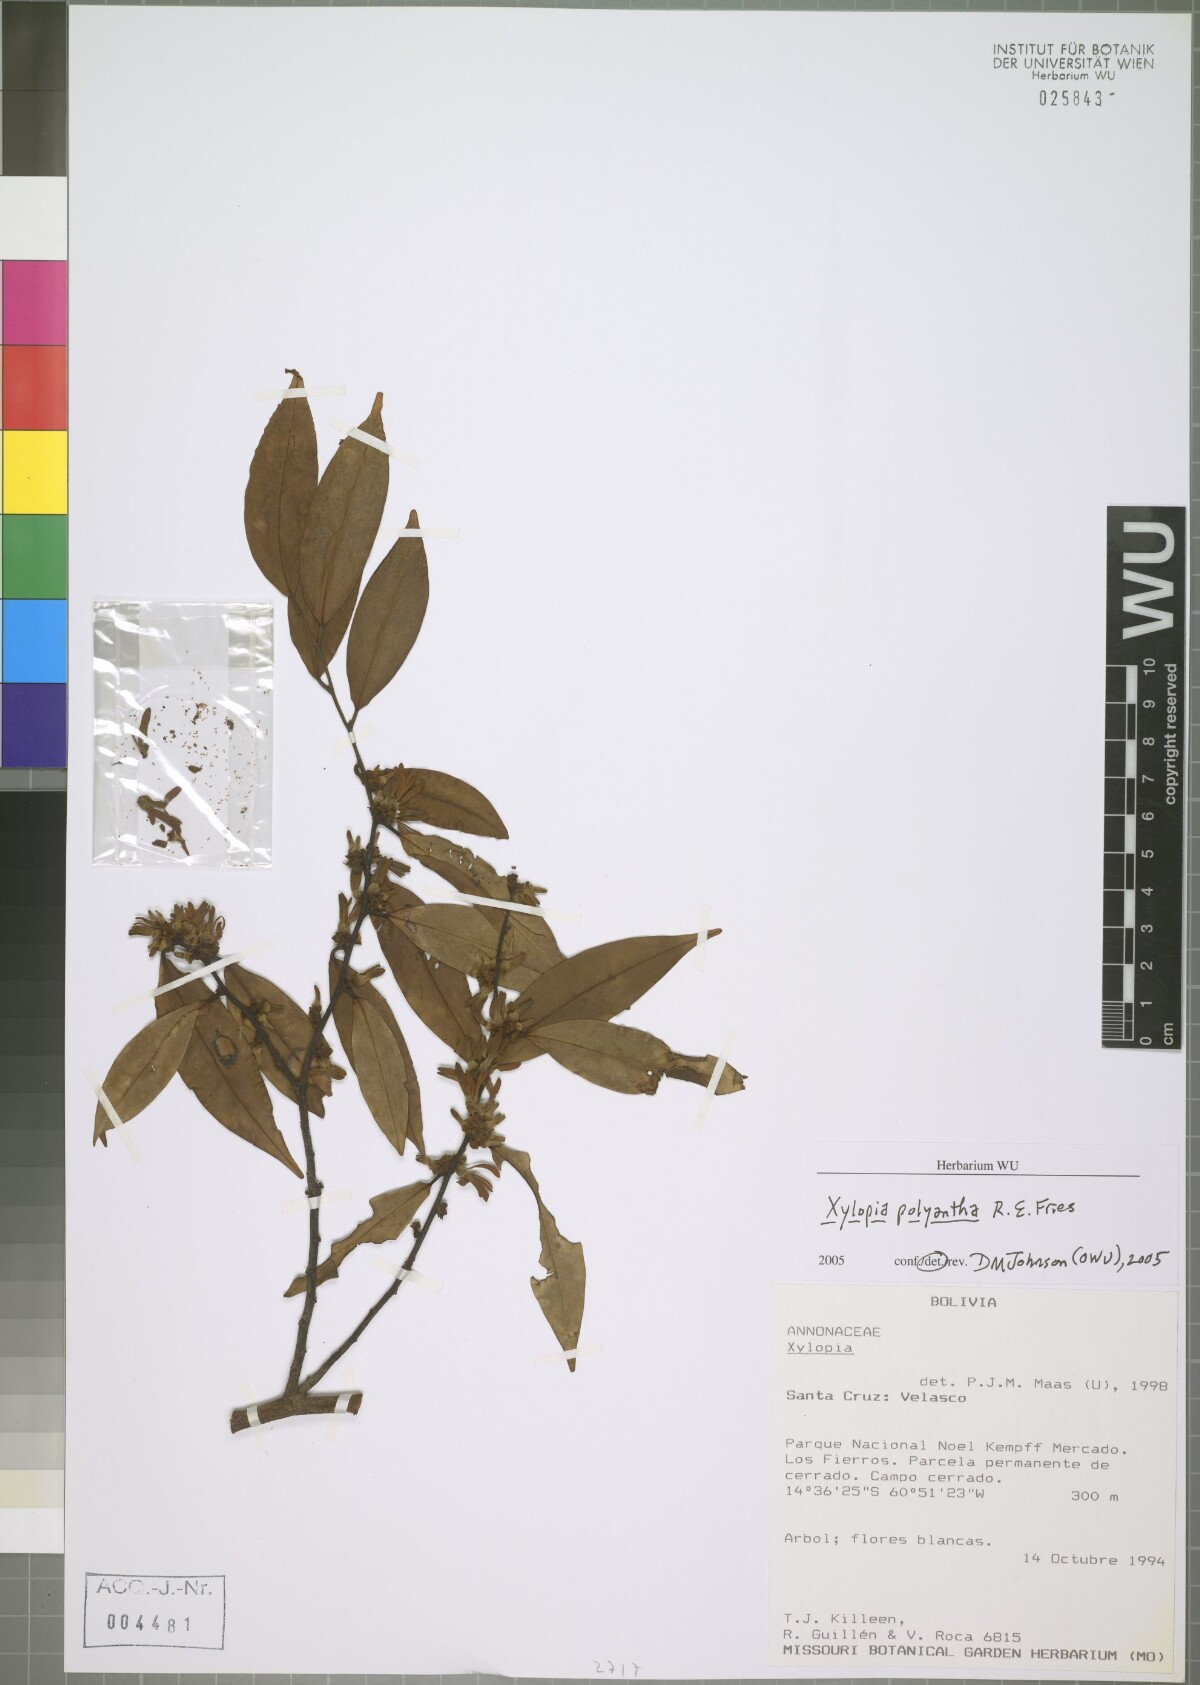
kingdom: Plantae
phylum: Tracheophyta
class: Magnoliopsida
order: Magnoliales
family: Annonaceae
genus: Xylopia
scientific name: Xylopia polyantha
